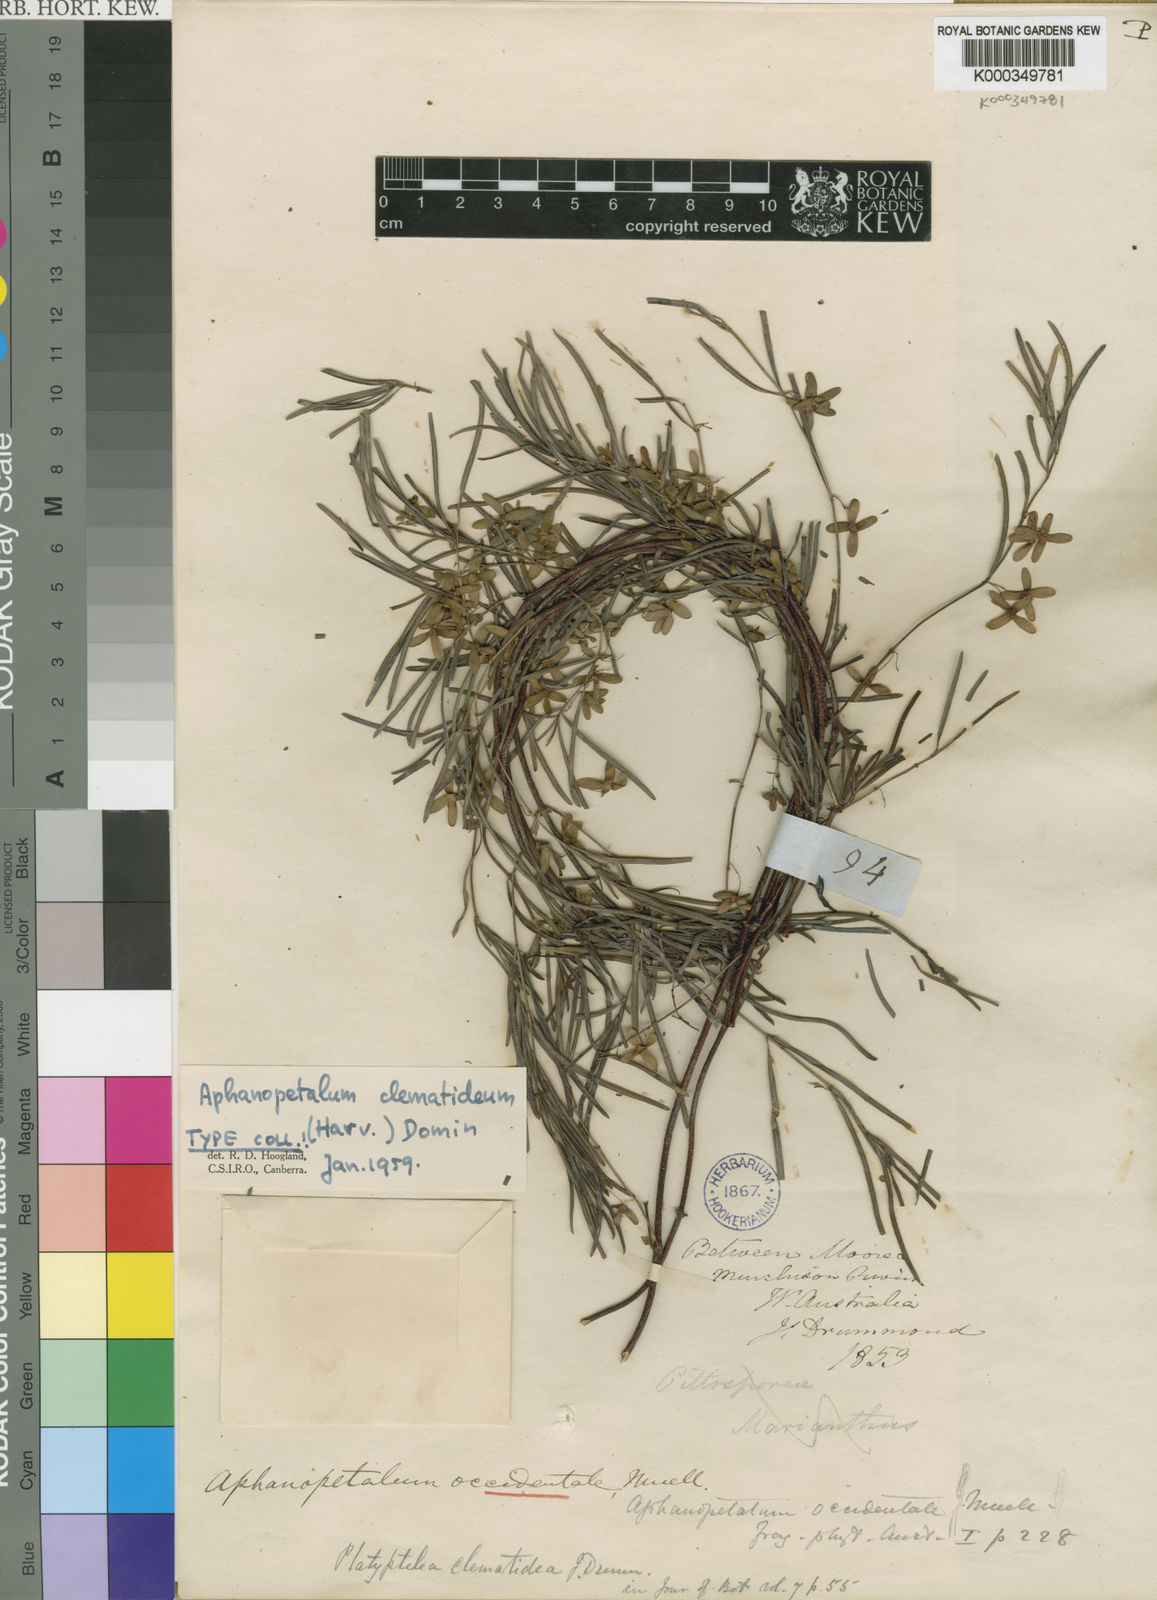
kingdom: Plantae
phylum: Tracheophyta
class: Magnoliopsida
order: Saxifragales
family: Aphanopetalaceae
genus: Aphanopetalum
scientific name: Aphanopetalum clematideum
